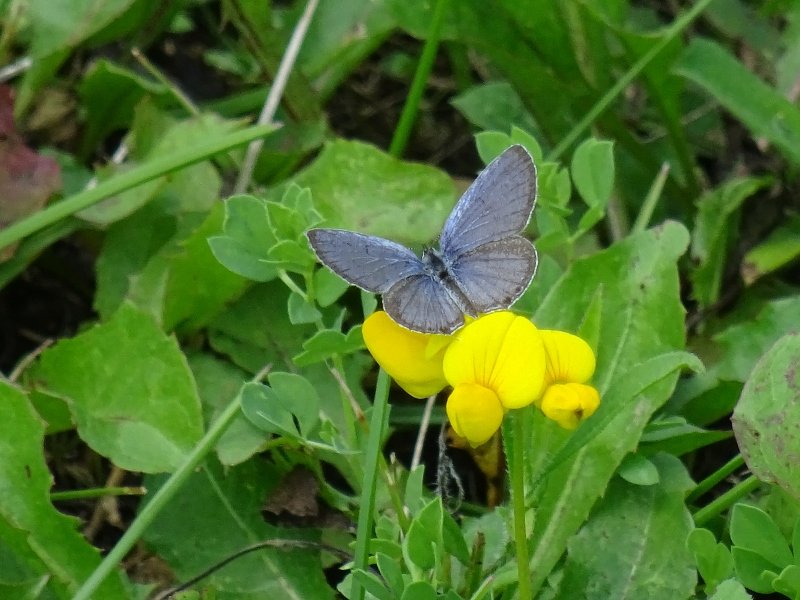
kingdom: Animalia
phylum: Arthropoda
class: Insecta
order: Lepidoptera
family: Lycaenidae
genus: Elkalyce
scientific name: Elkalyce comyntas
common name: Eastern Tailed-Blue
